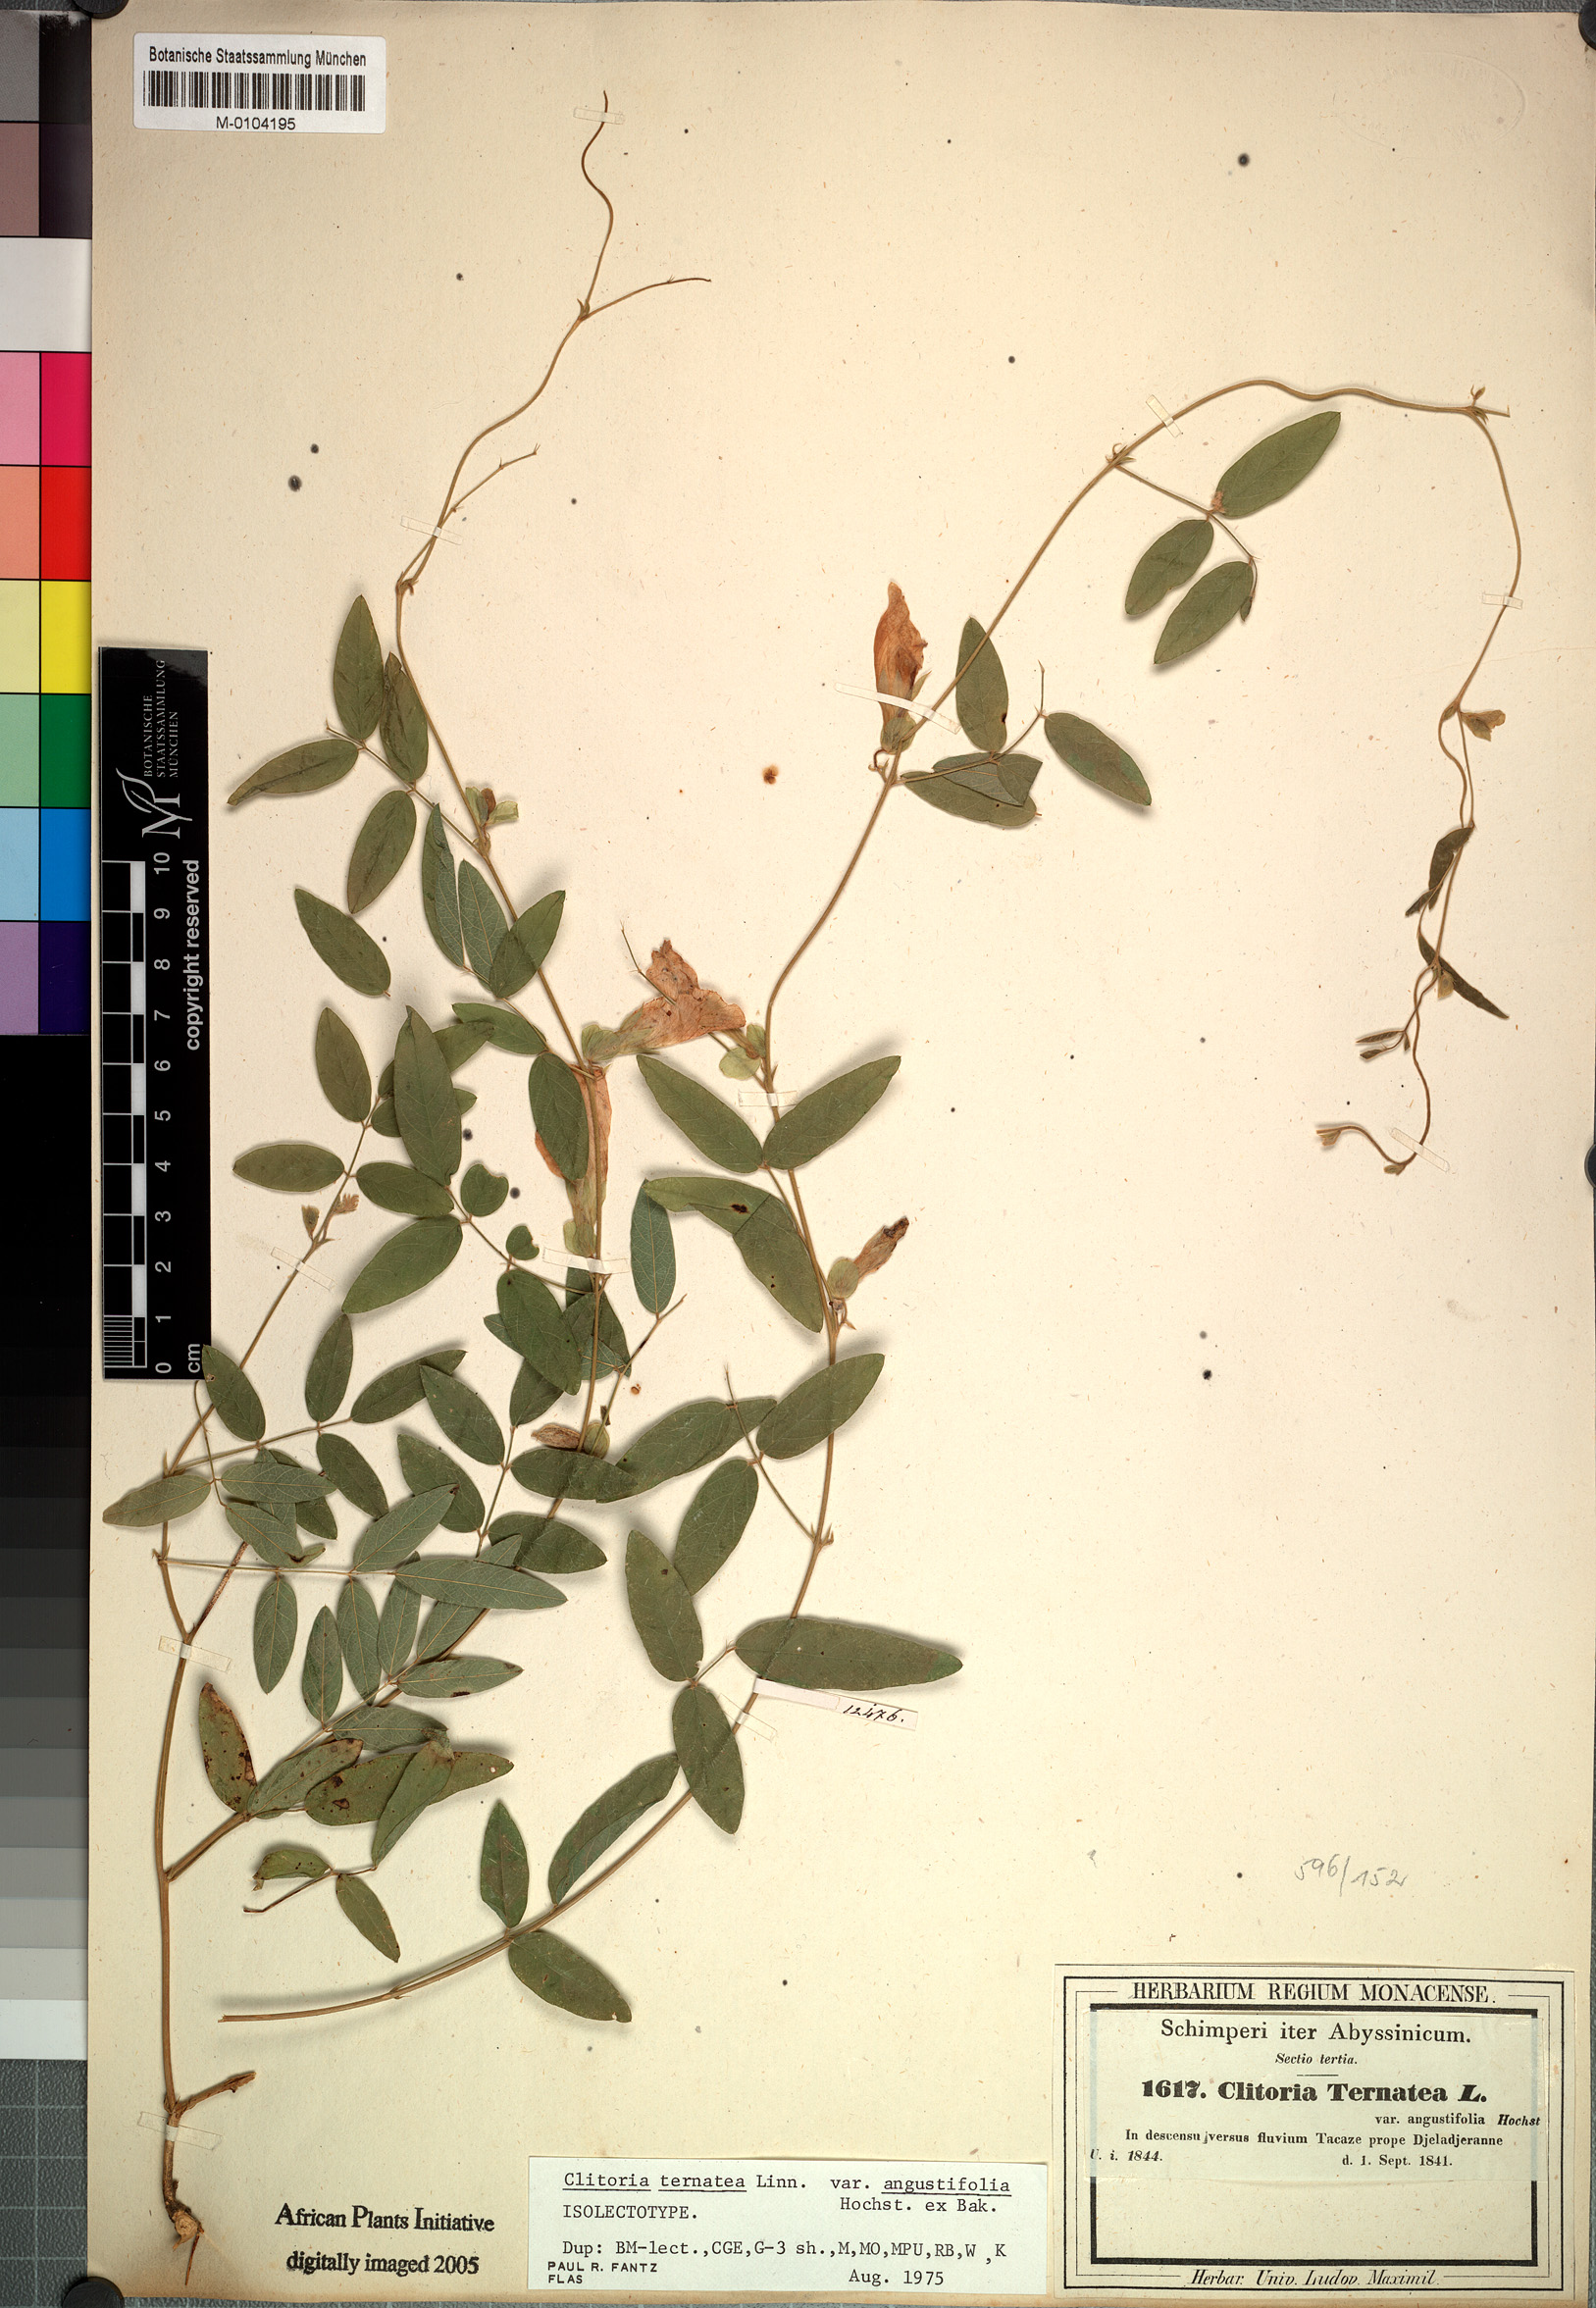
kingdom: Plantae
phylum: Tracheophyta
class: Magnoliopsida
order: Fabales
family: Fabaceae
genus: Clitoria
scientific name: Clitoria ternatea
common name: Asian pigeonwings
